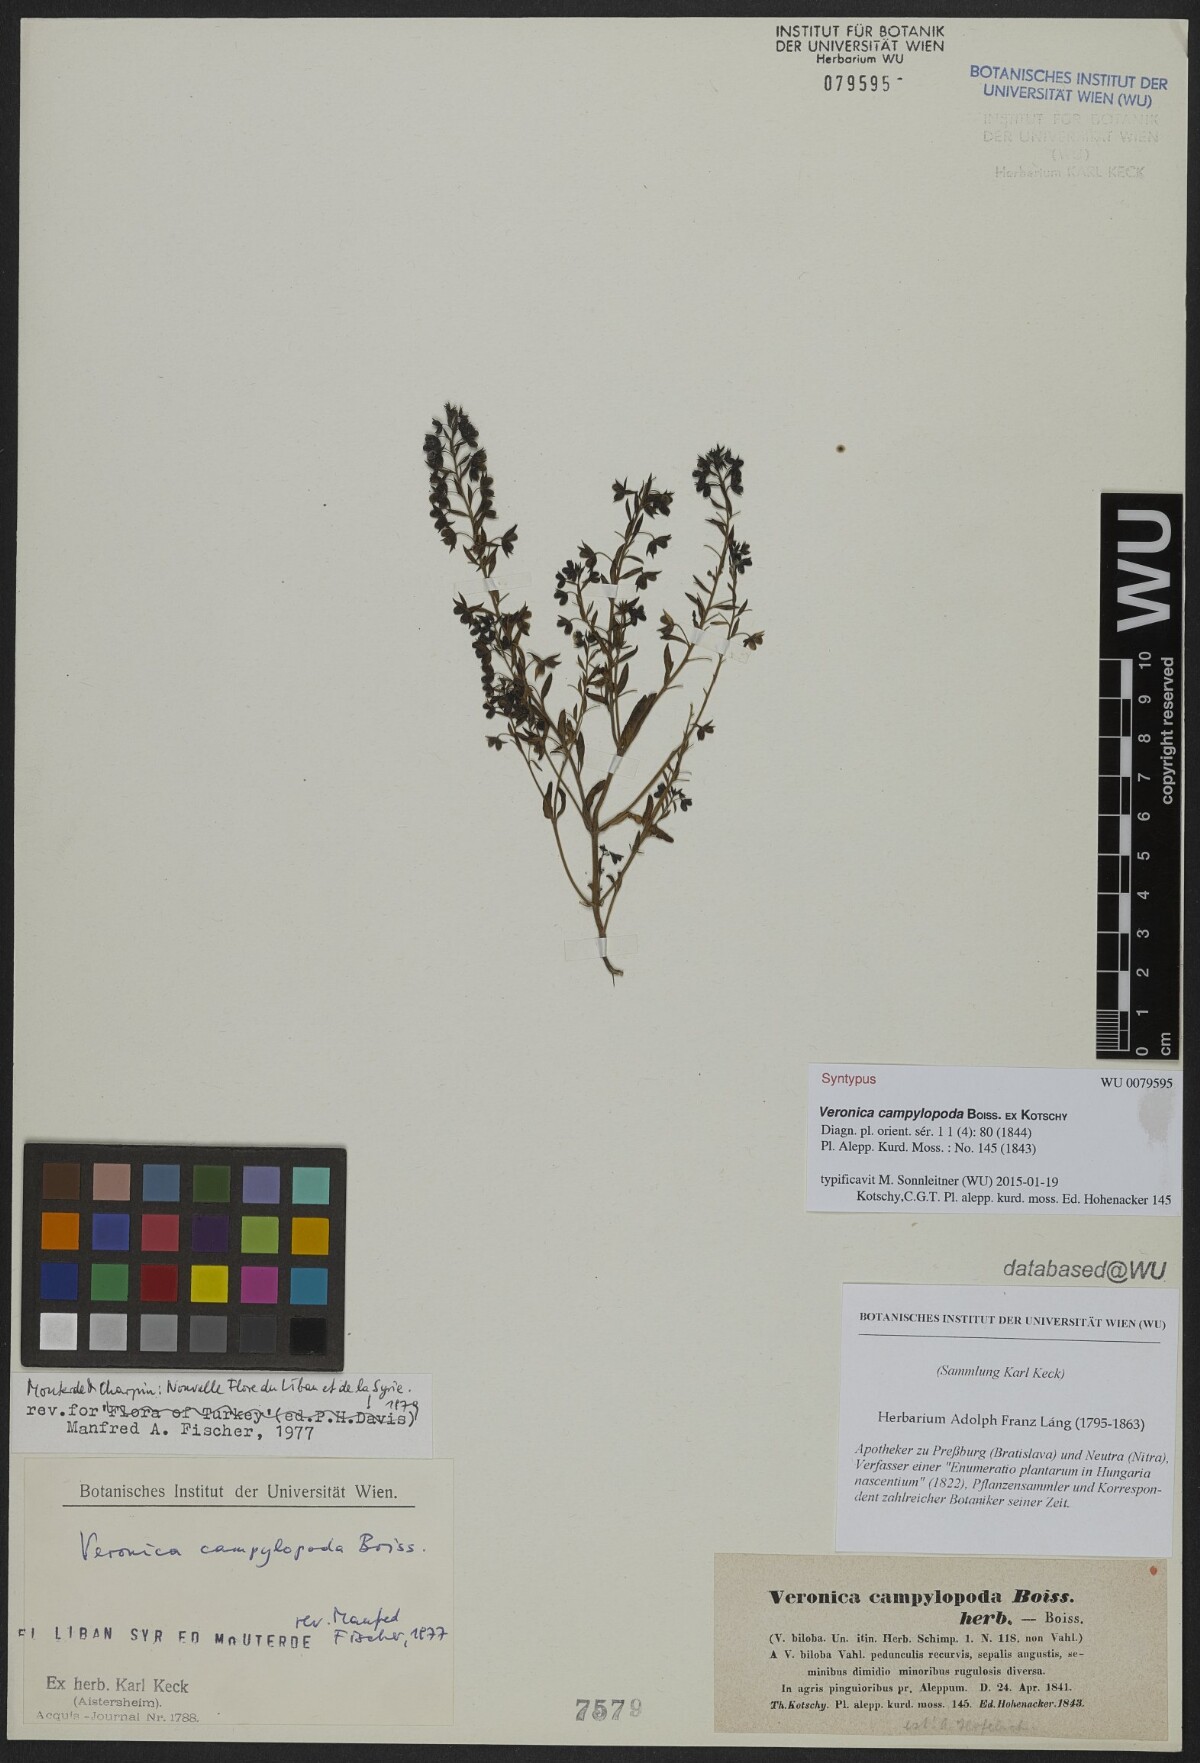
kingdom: Plantae
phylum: Tracheophyta
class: Magnoliopsida
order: Lamiales
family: Scrophulariaceae
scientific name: Scrophulariaceae
